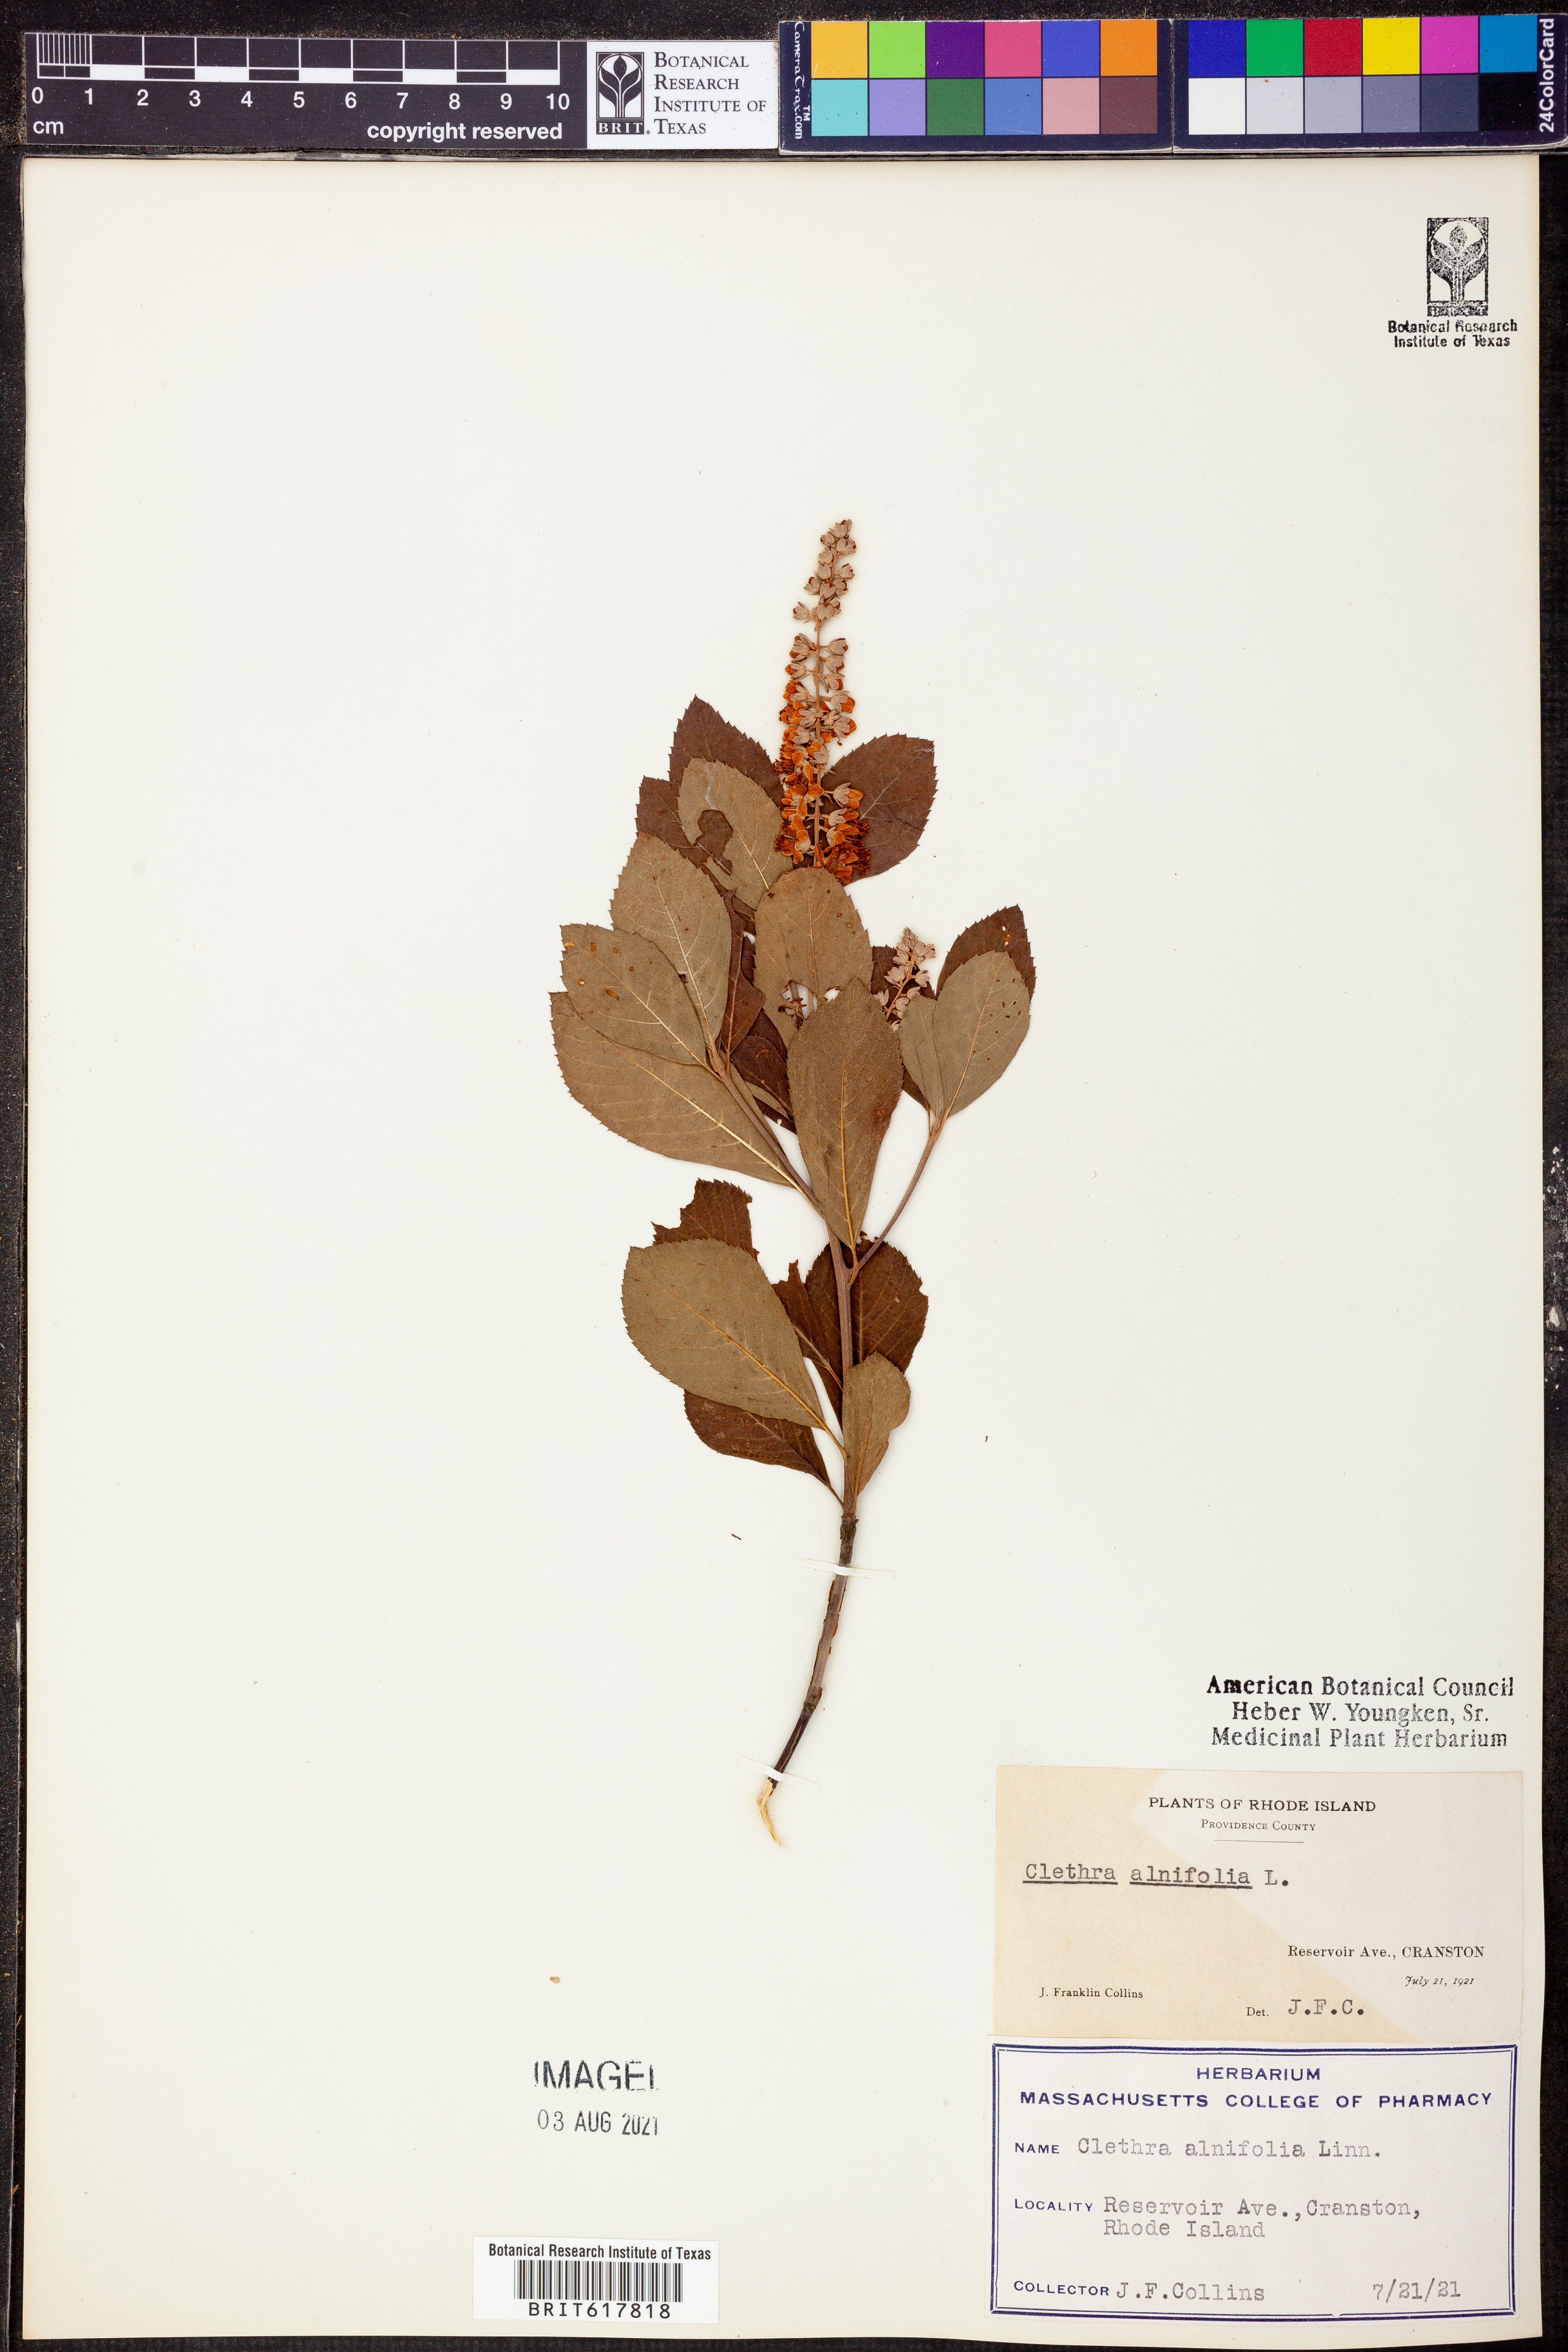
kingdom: Plantae
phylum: Tracheophyta
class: Magnoliopsida
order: Ericales
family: Clethraceae
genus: Clethra
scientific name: Clethra alnifolia
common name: Sweet pepperbush
